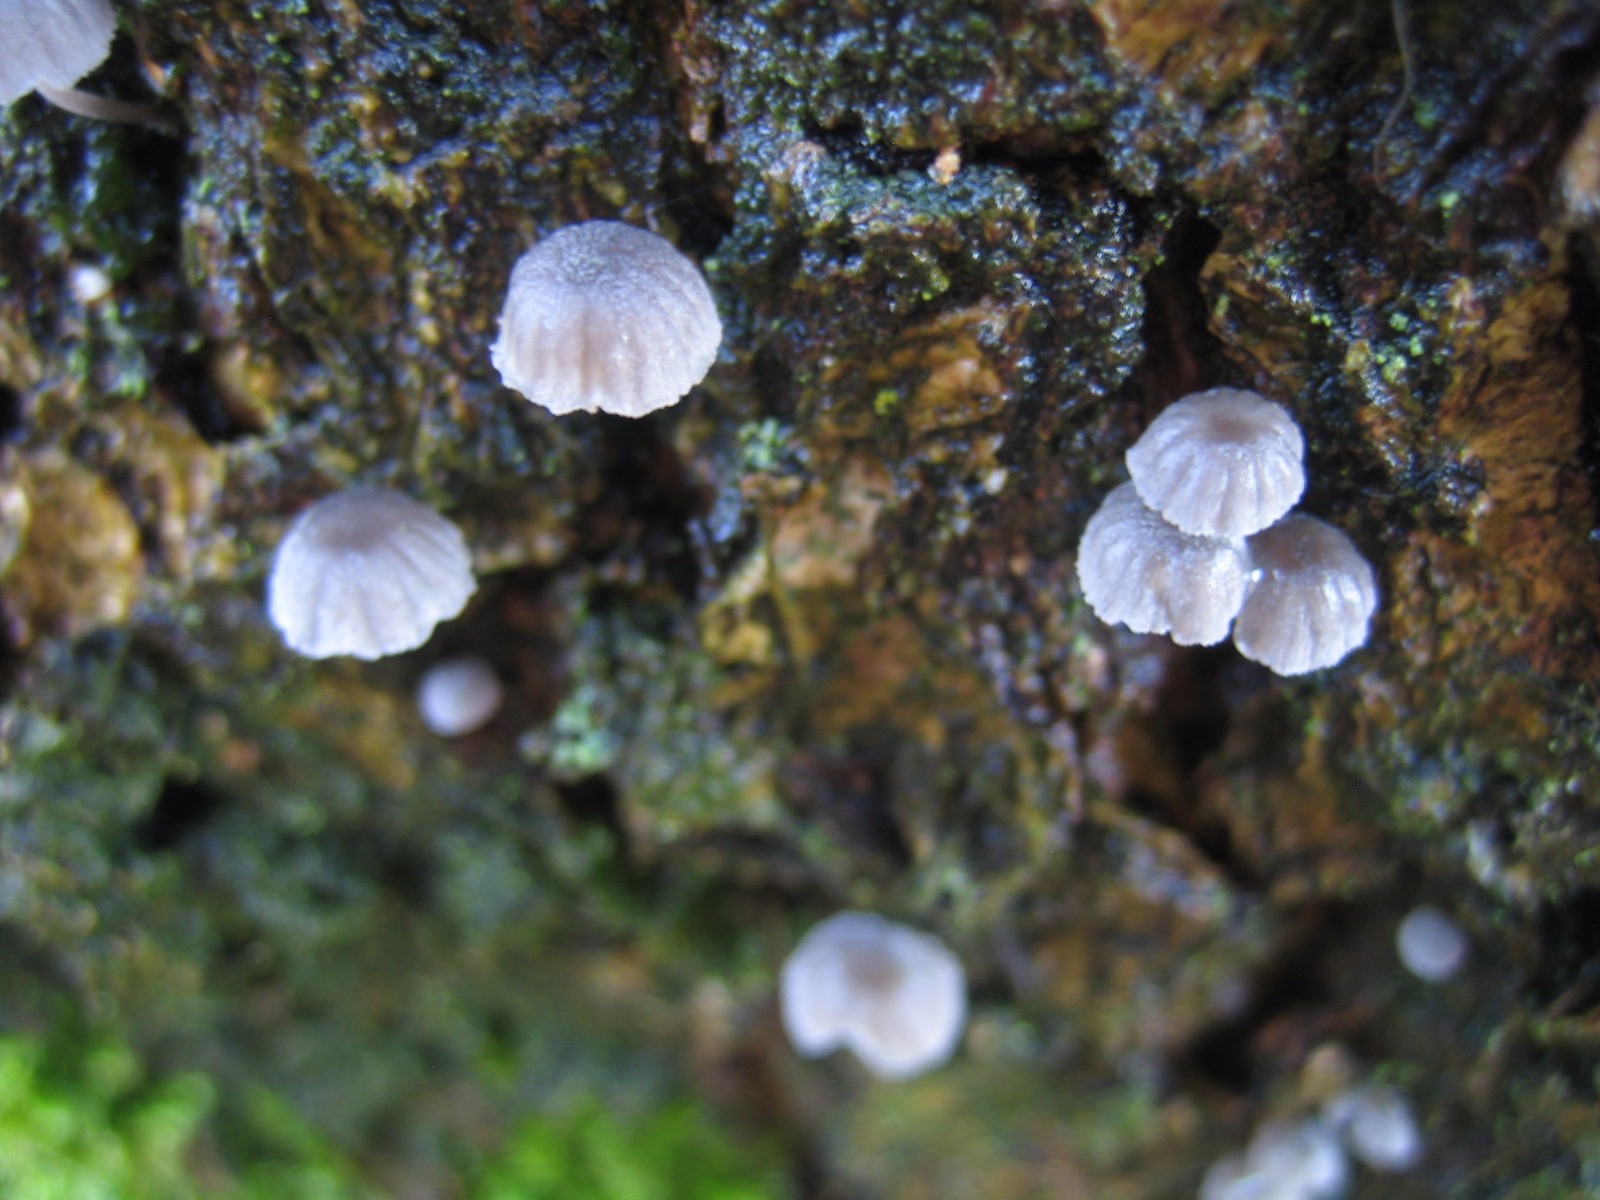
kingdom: Fungi
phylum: Basidiomycota
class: Agaricomycetes
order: Agaricales
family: Mycenaceae
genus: Mycena
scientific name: Mycena pseudocorticola
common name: gråblå bark-huesvamp
